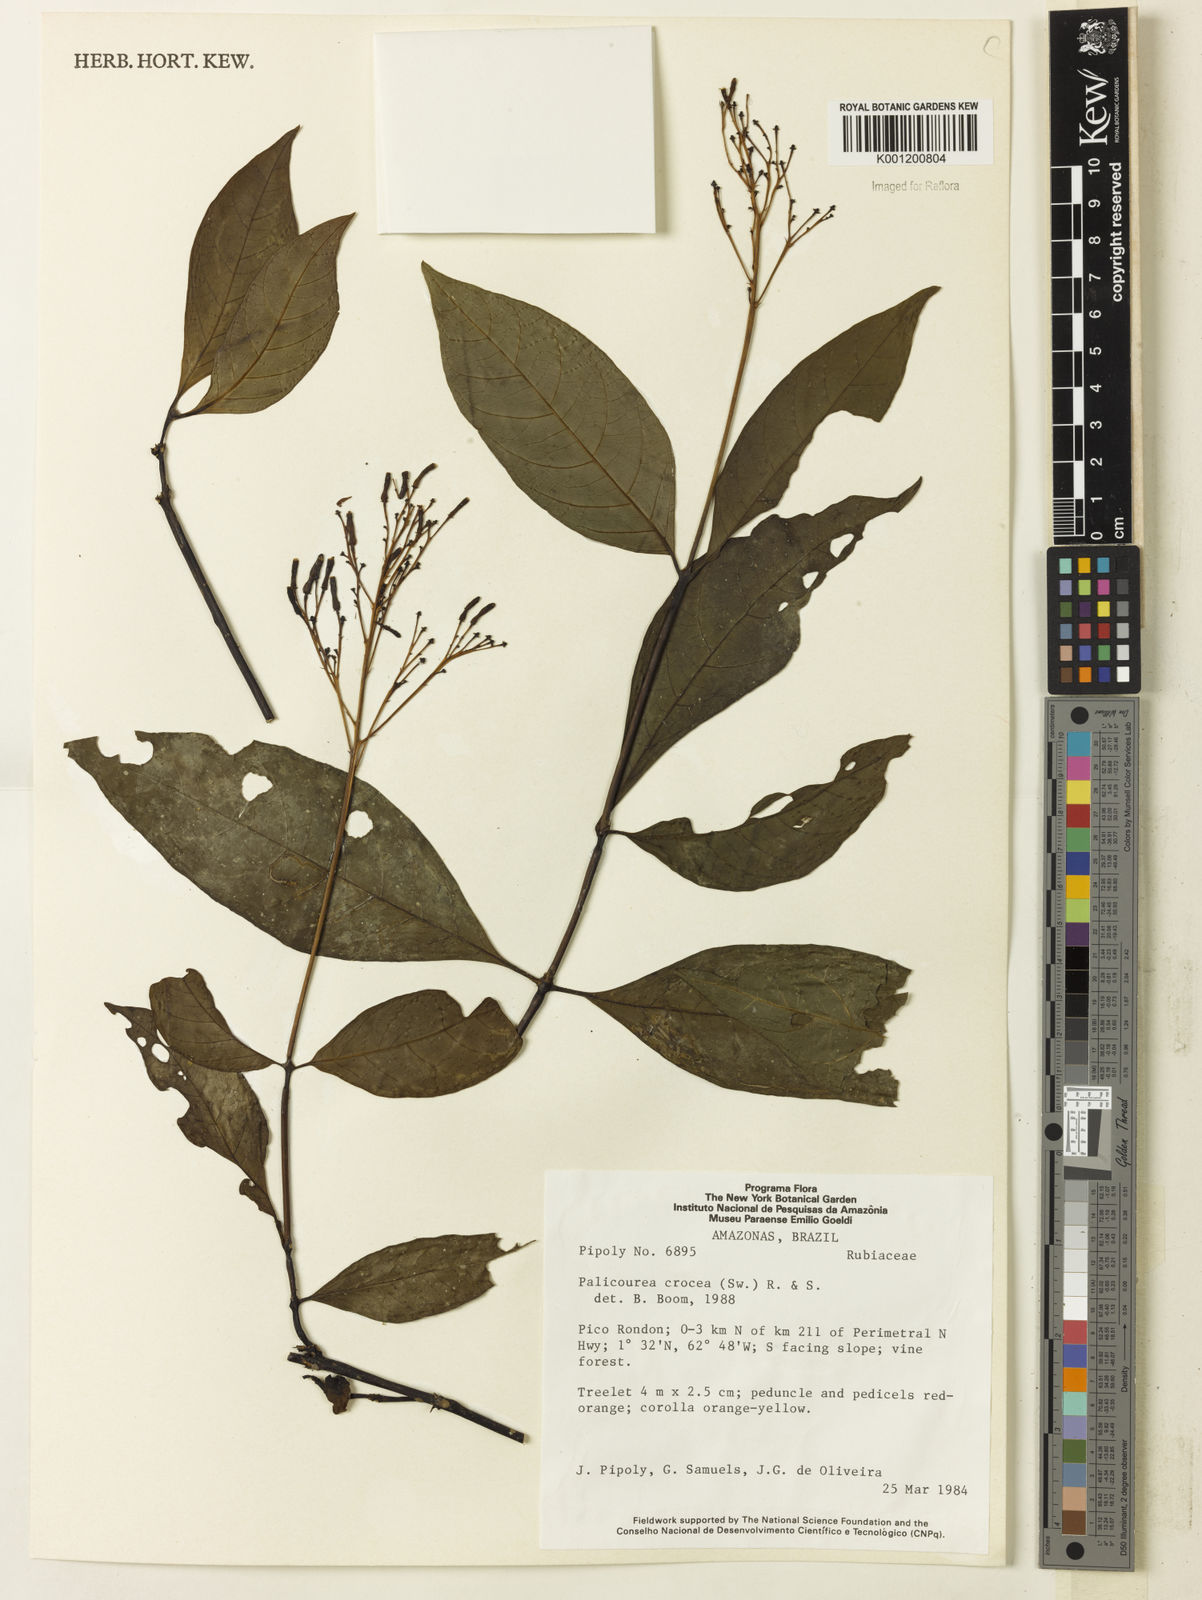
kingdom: Plantae
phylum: Tracheophyta
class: Magnoliopsida
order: Gentianales
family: Rubiaceae
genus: Palicourea
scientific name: Palicourea crocea
